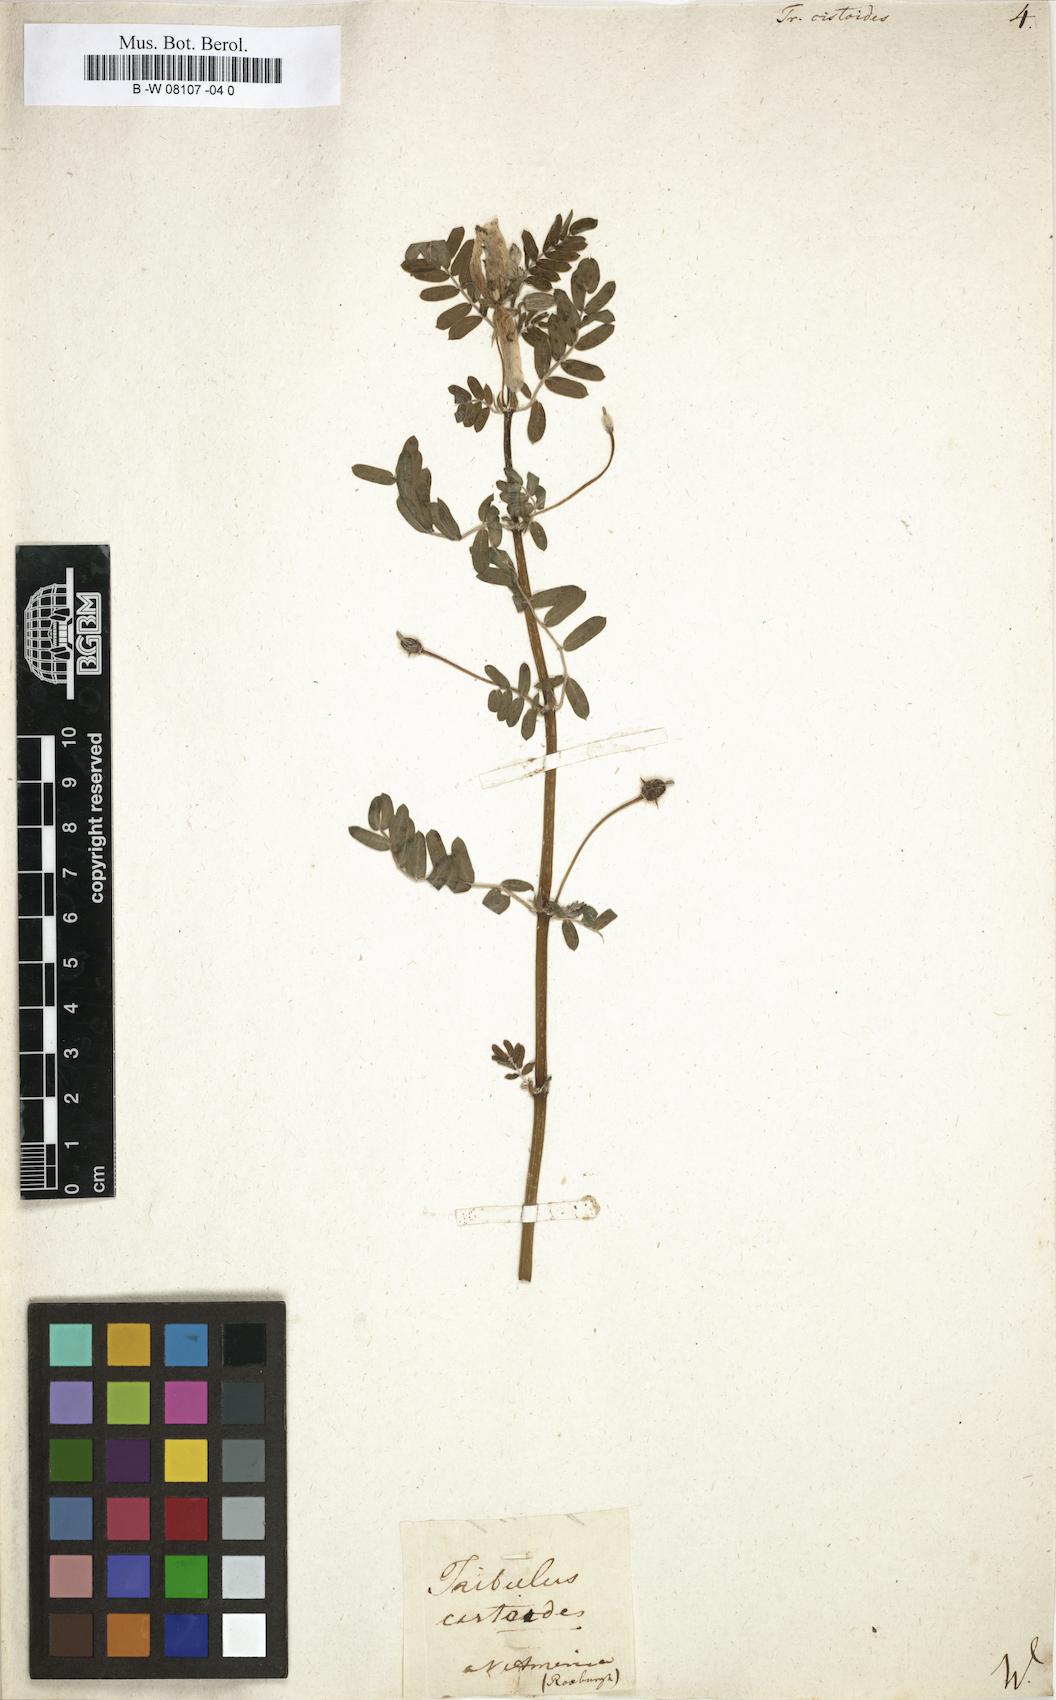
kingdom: Plantae
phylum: Tracheophyta
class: Magnoliopsida
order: Zygophyllales
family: Zygophyllaceae
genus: Tribulus
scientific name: Tribulus cistoides
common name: Jamaican feverplant
